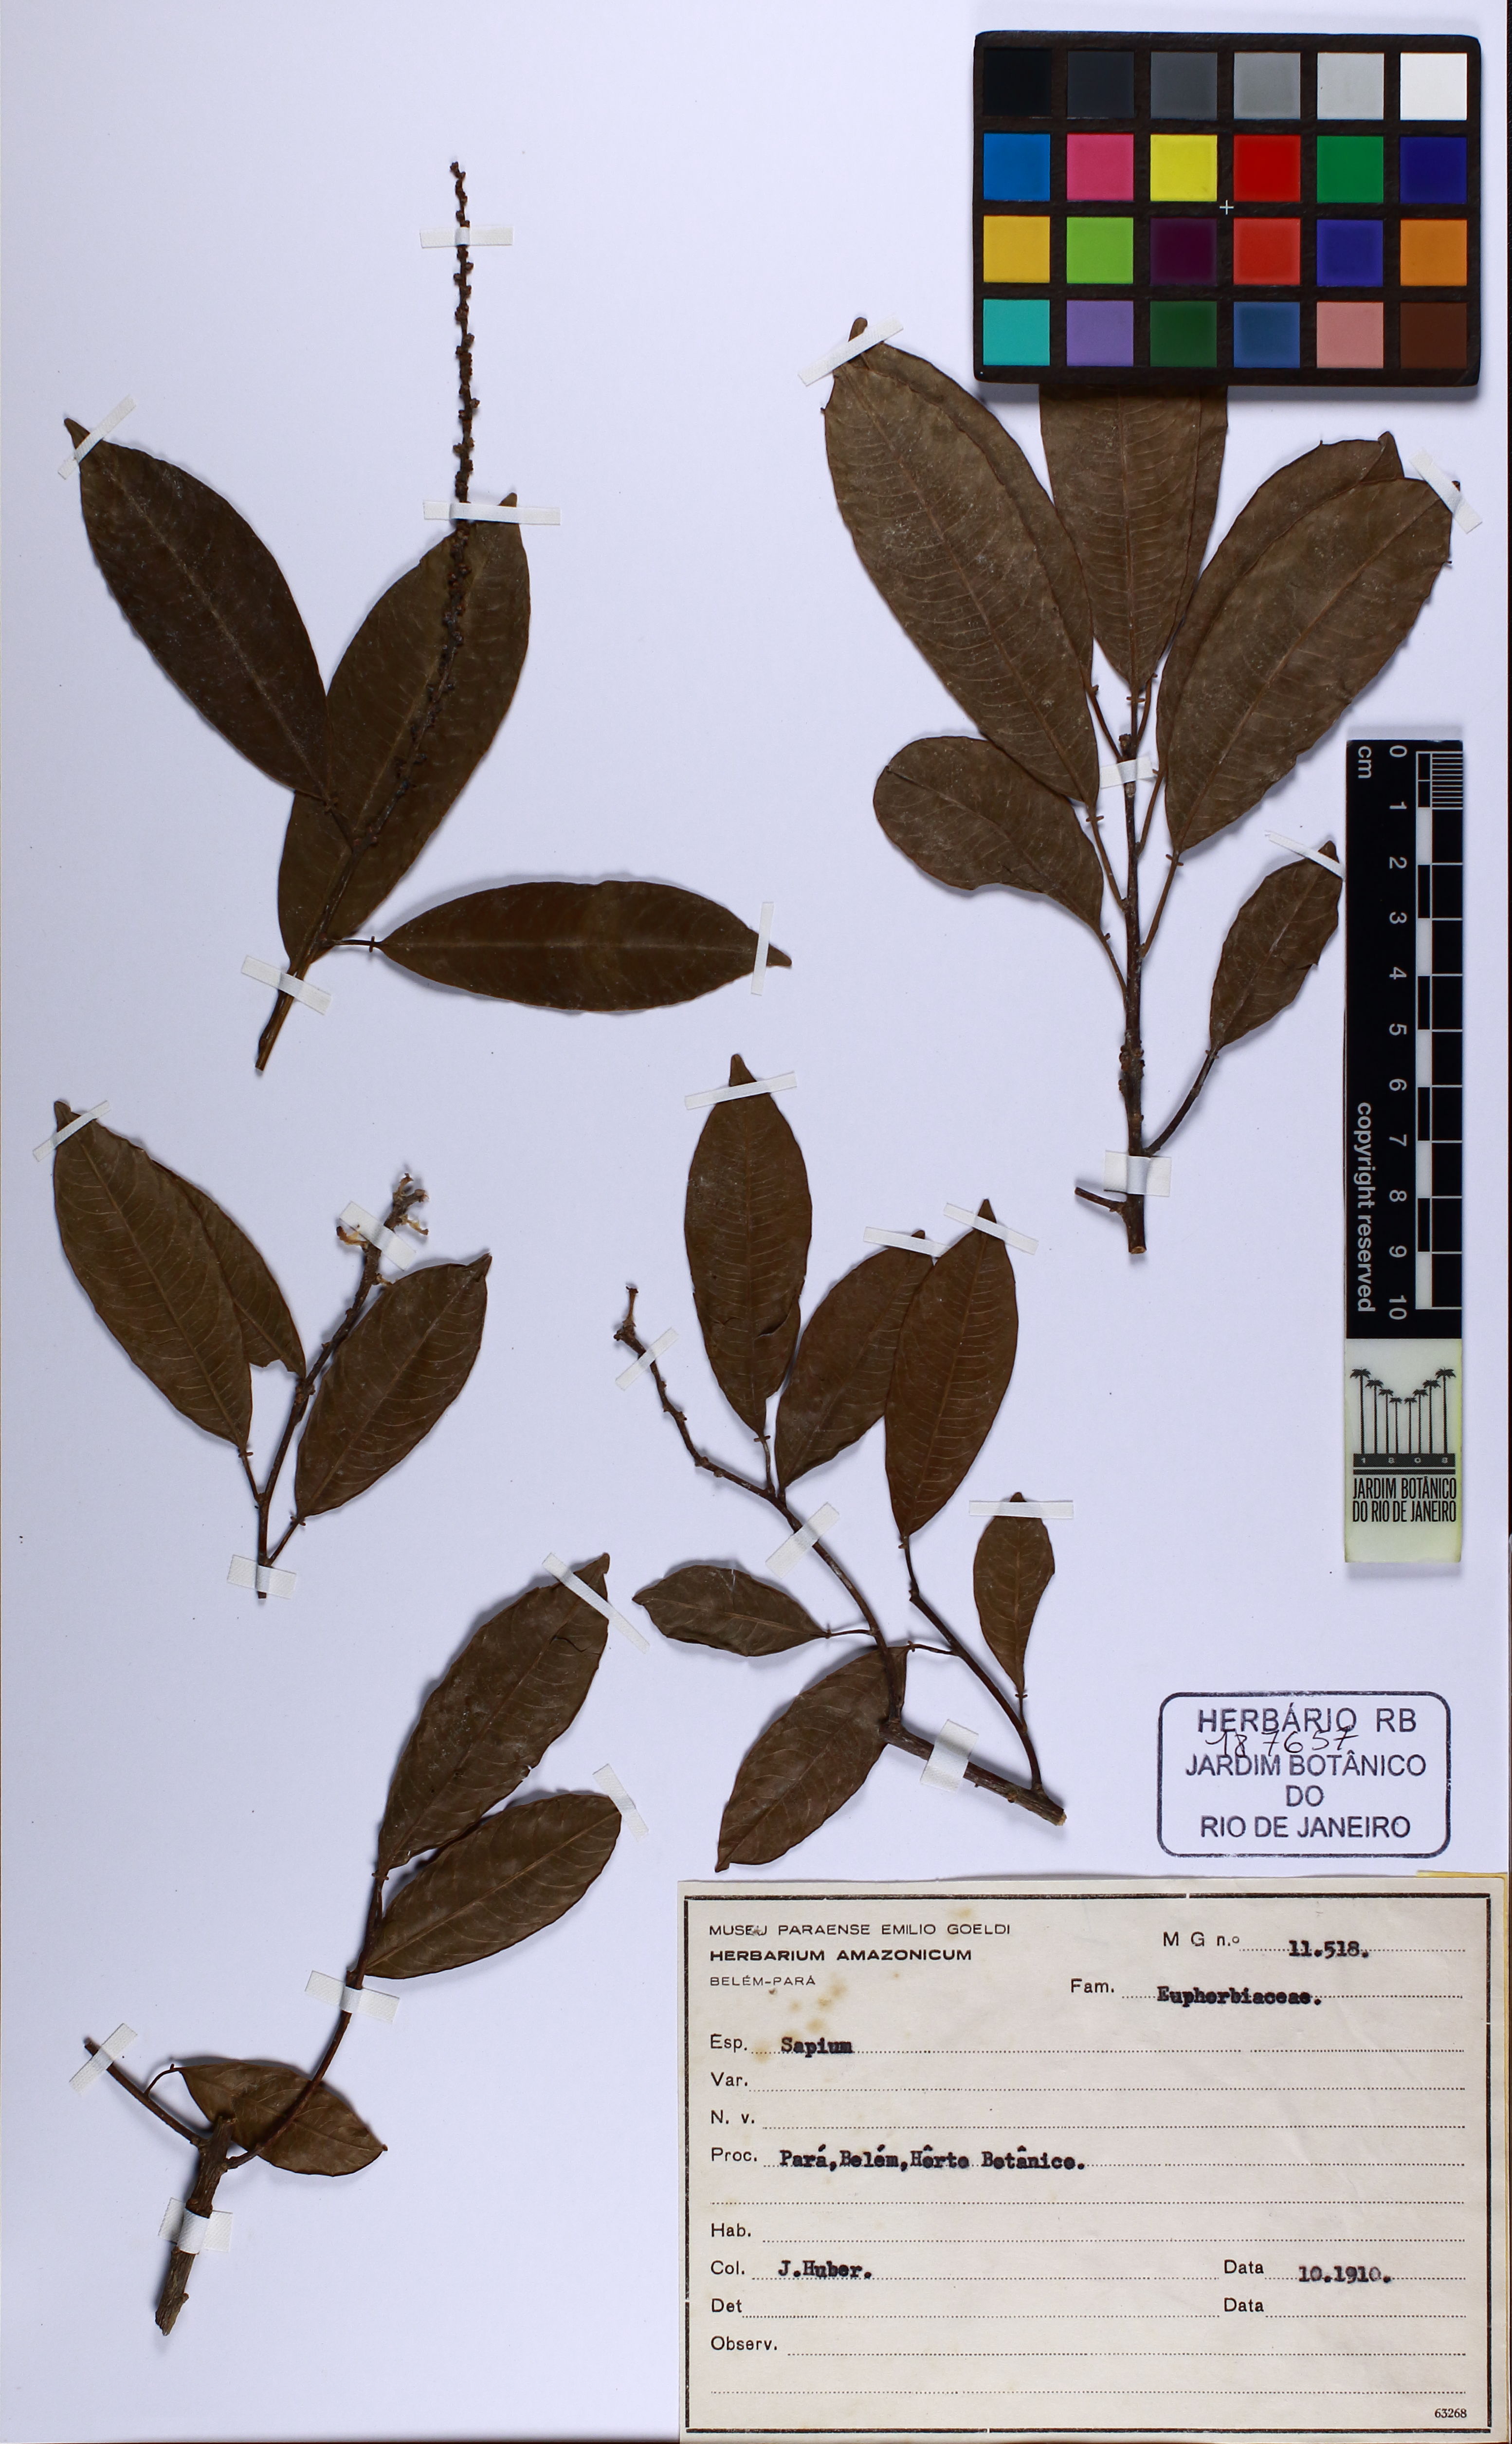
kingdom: Plantae
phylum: Tracheophyta
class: Magnoliopsida
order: Malpighiales
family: Euphorbiaceae
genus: Sapium
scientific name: Sapium
